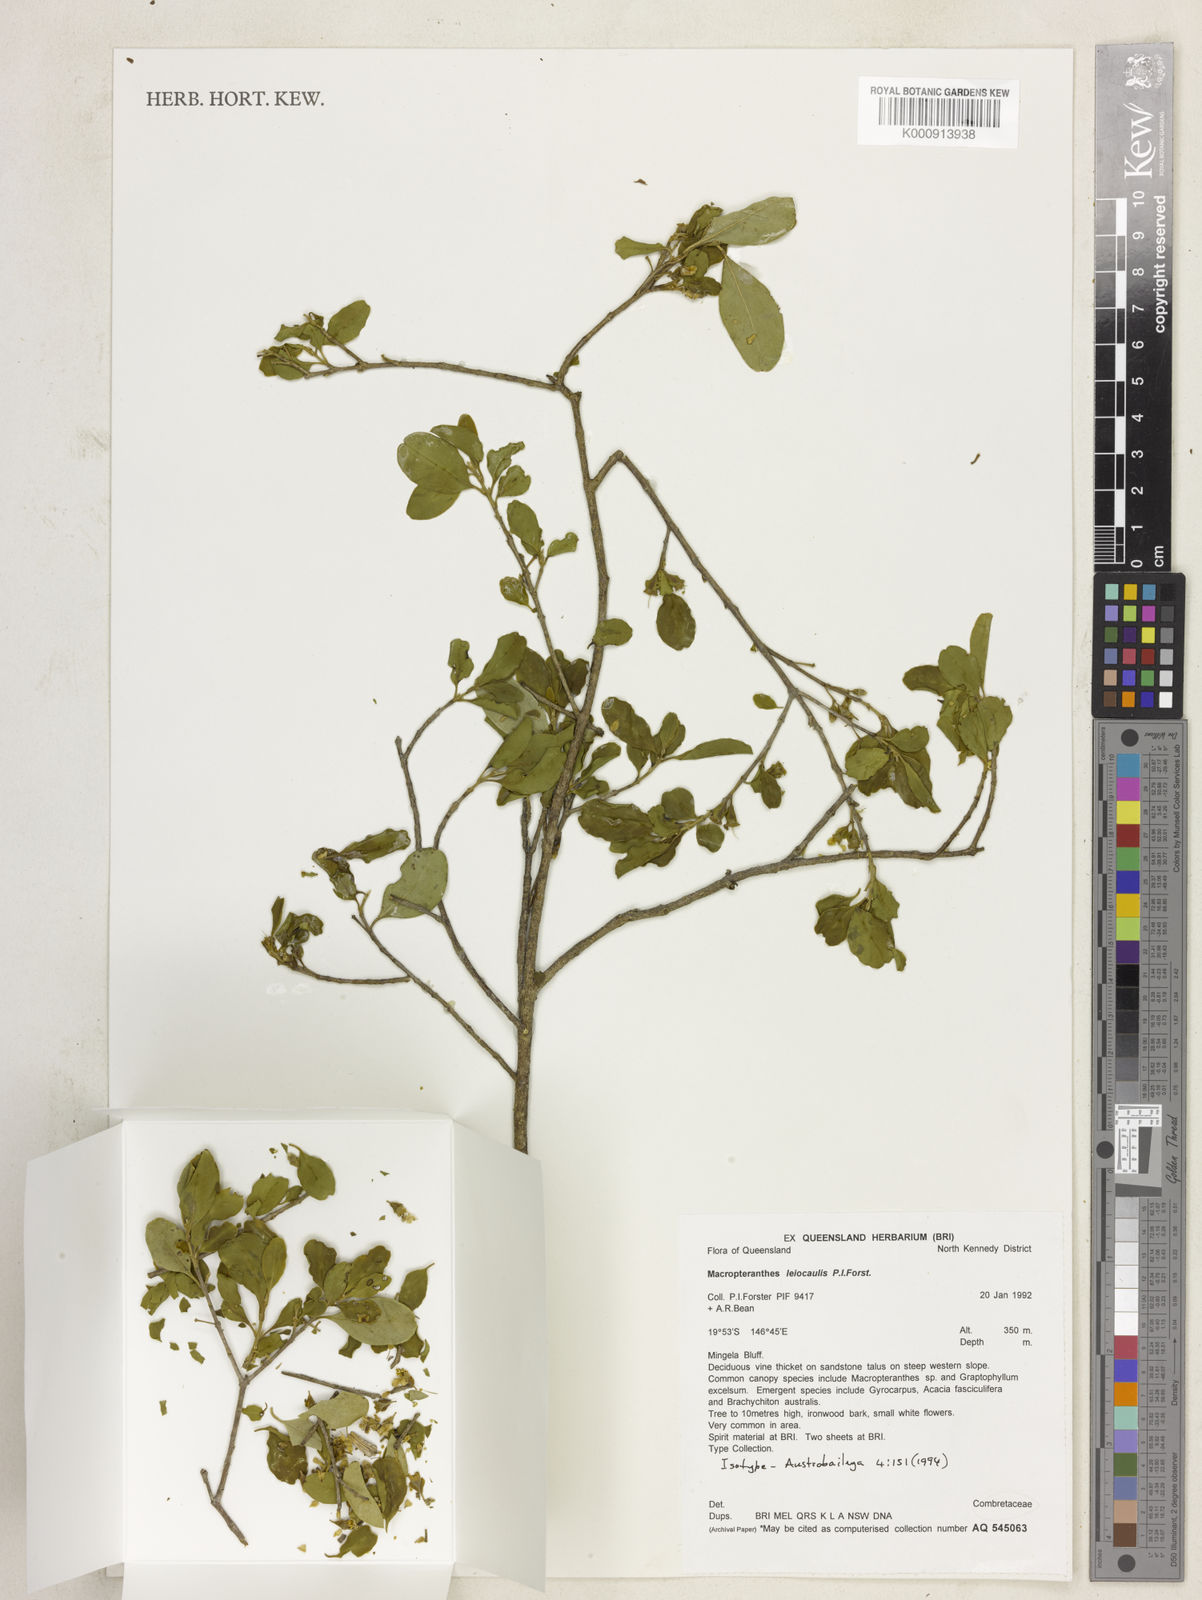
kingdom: Plantae
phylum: Tracheophyta
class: Magnoliopsida
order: Myrtales
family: Combretaceae
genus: Macropteranthes
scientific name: Macropteranthes leiocaulis
